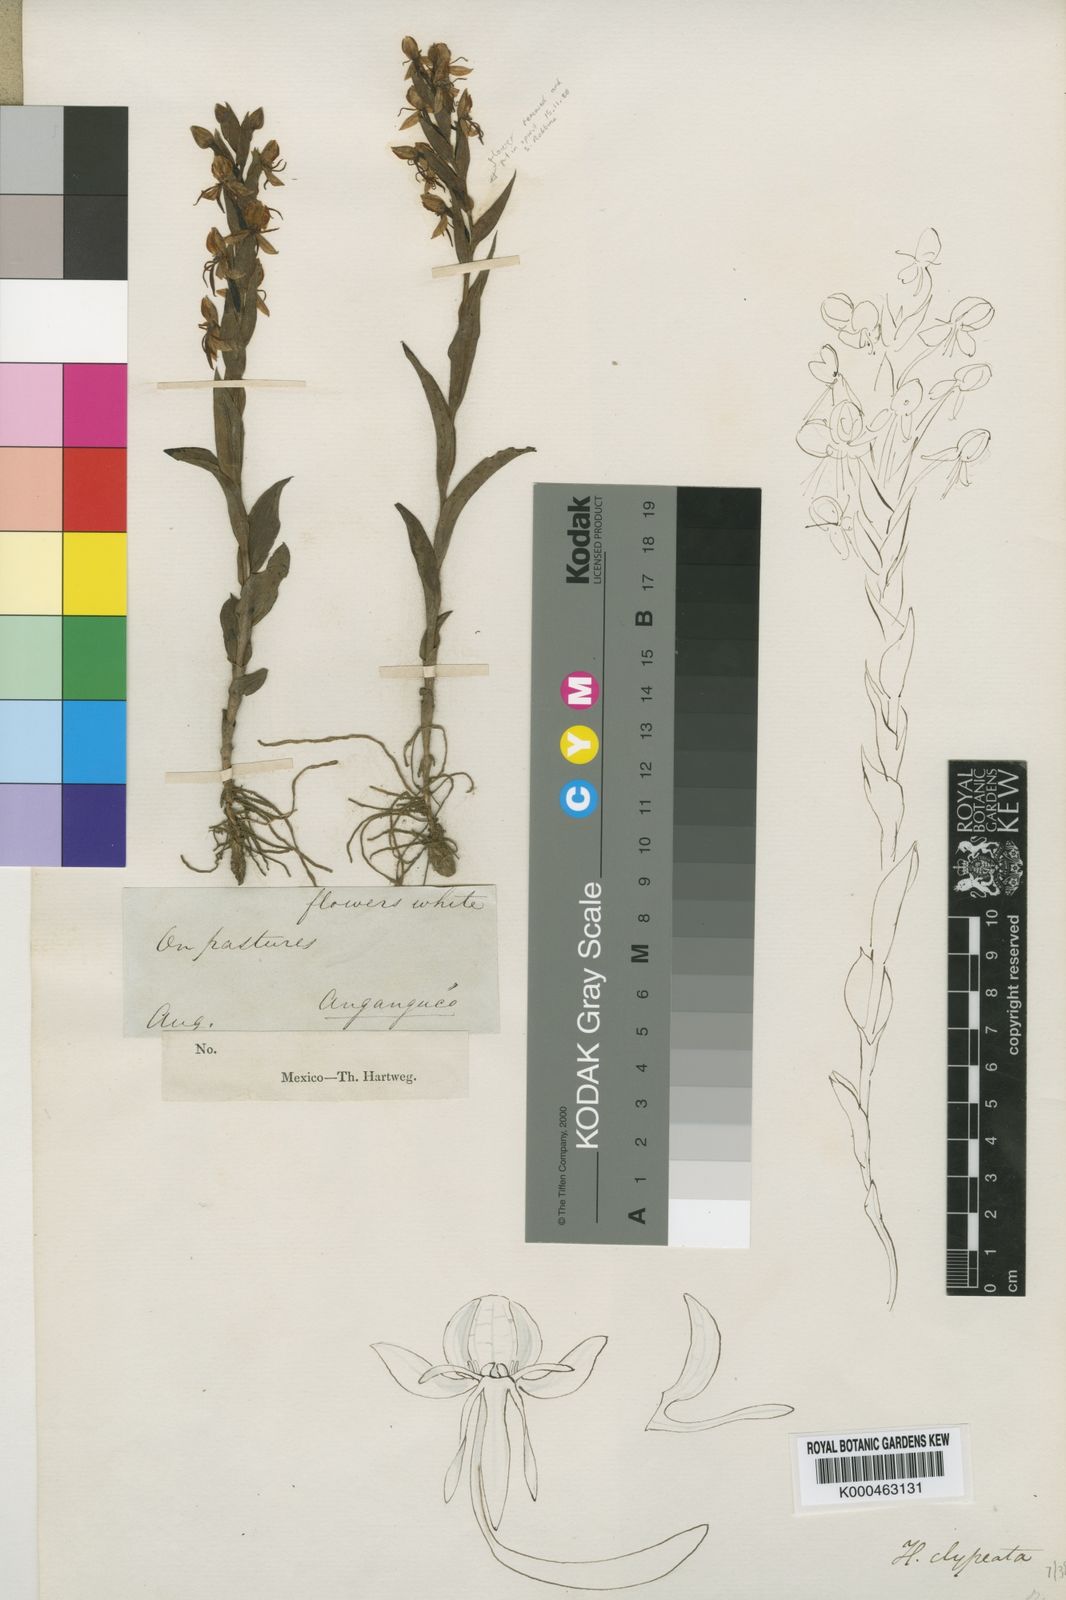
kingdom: Plantae
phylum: Tracheophyta
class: Liliopsida
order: Asparagales
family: Orchidaceae
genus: Habenaria
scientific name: Habenaria clypeata
